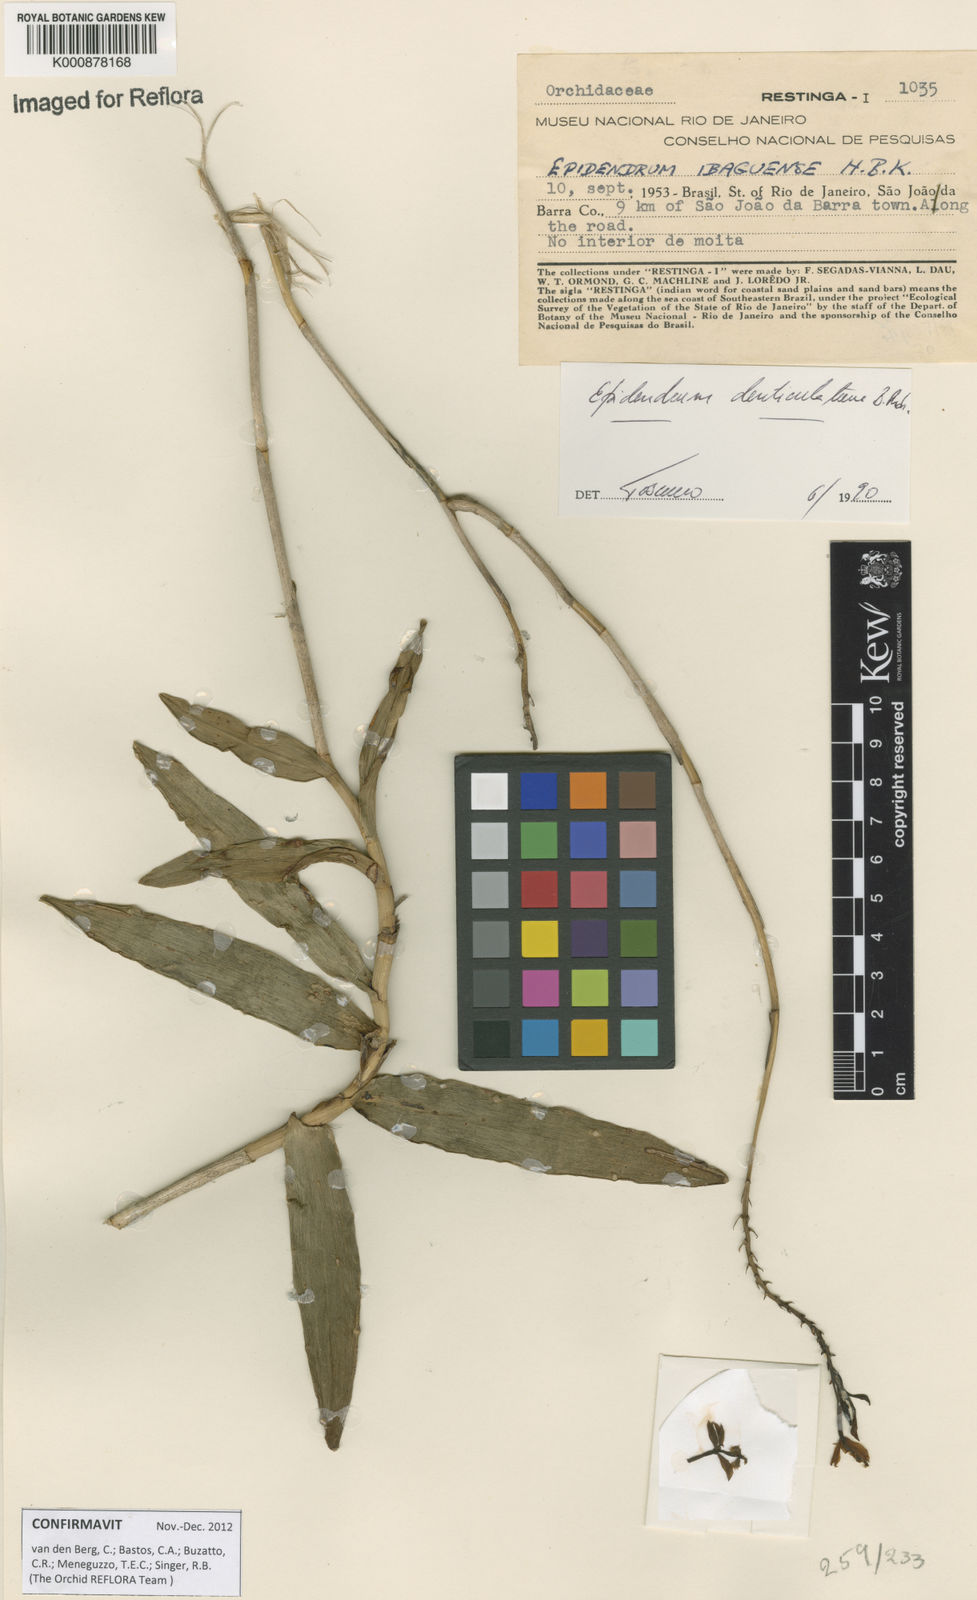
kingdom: Plantae
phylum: Tracheophyta
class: Liliopsida
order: Asparagales
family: Orchidaceae
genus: Epidendrum
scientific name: Epidendrum denticulatum
